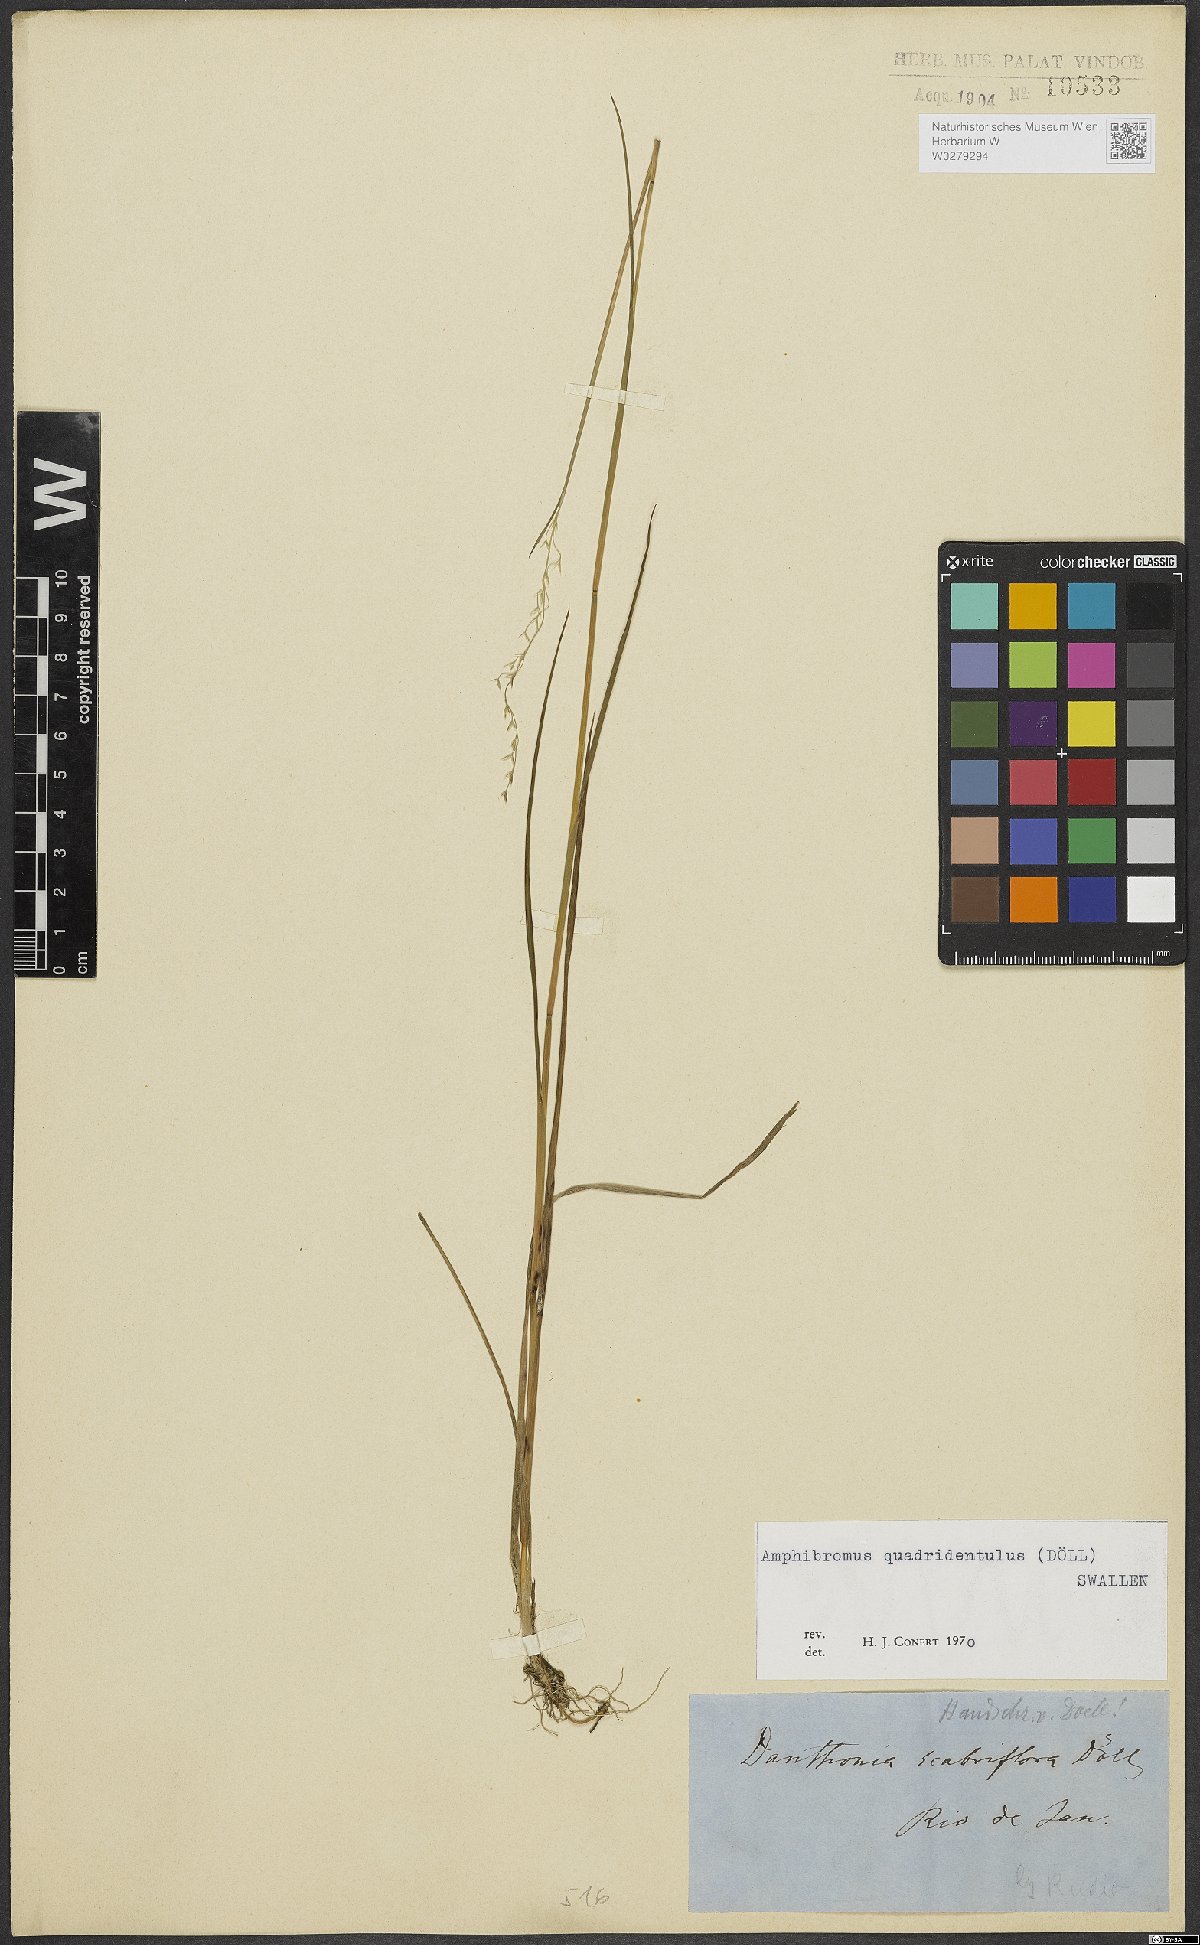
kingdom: Plantae
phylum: Tracheophyta
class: Liliopsida
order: Poales
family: Poaceae
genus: Amphibromus
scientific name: Amphibromus quadridentulus
